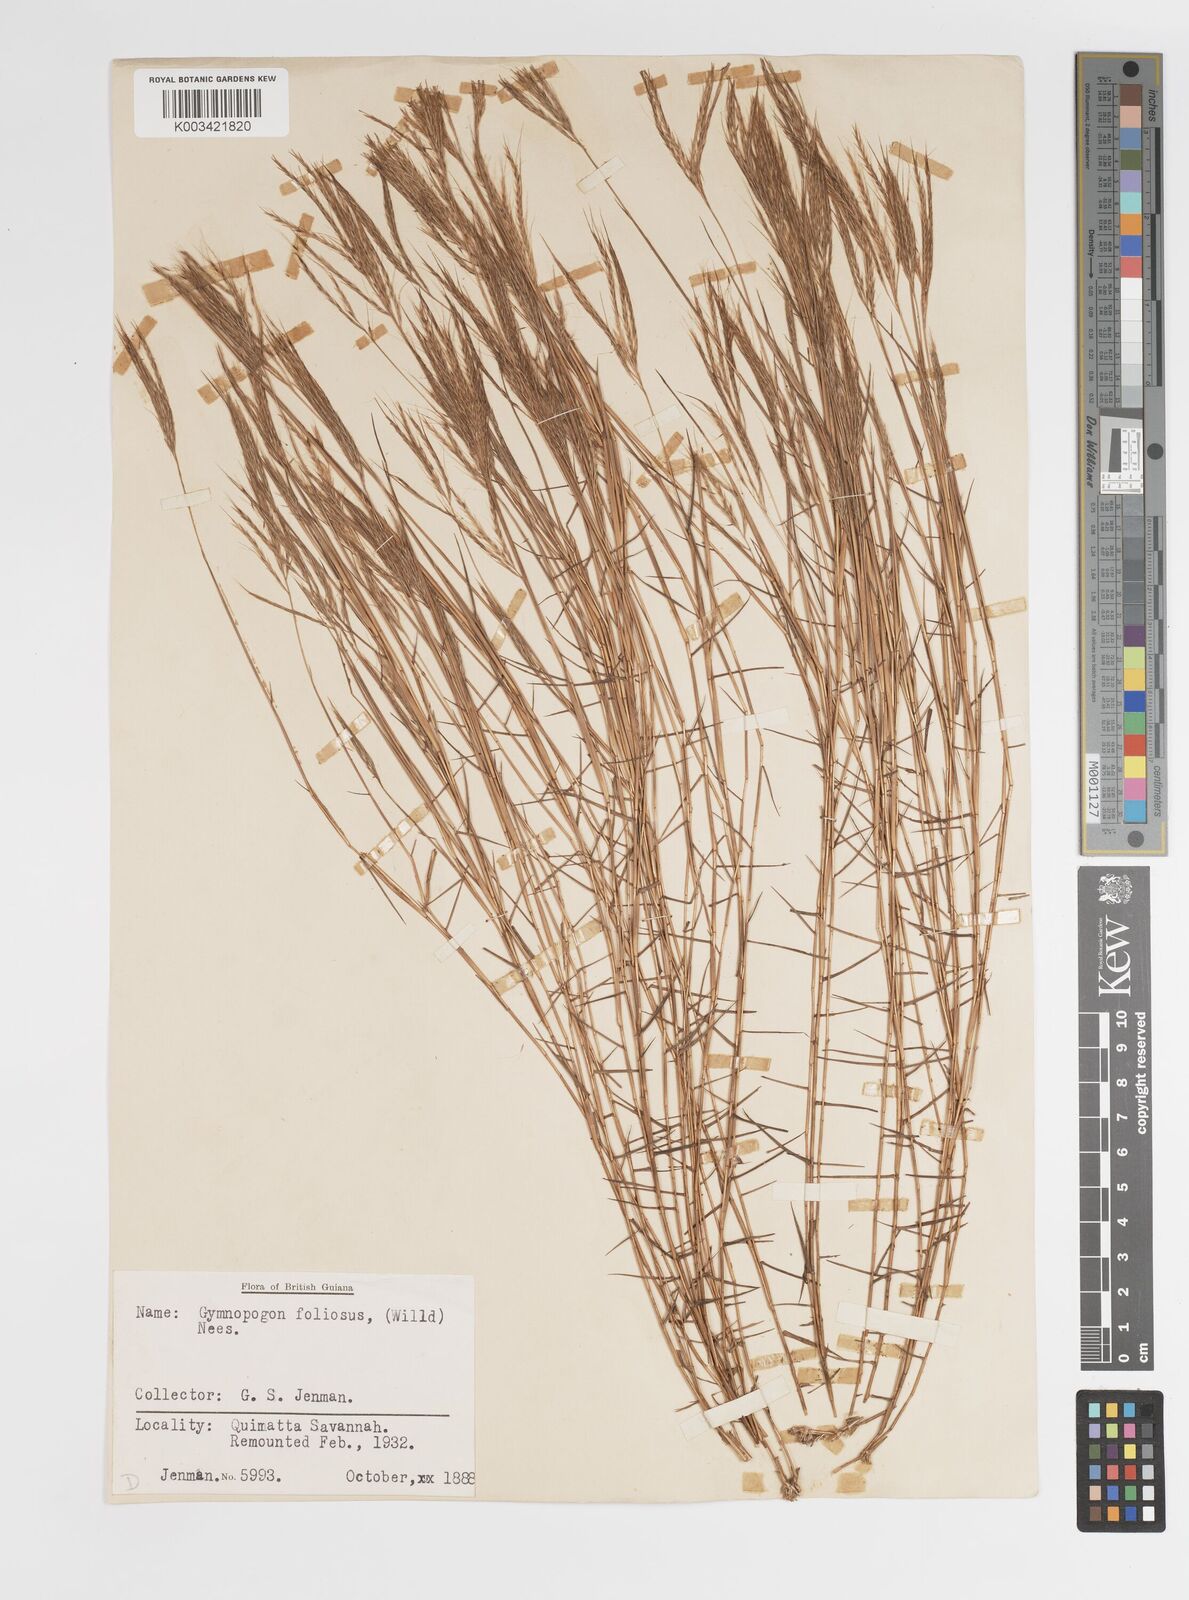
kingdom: Plantae
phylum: Tracheophyta
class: Liliopsida
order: Poales
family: Poaceae
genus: Gymnopogon
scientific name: Gymnopogon foliosus
